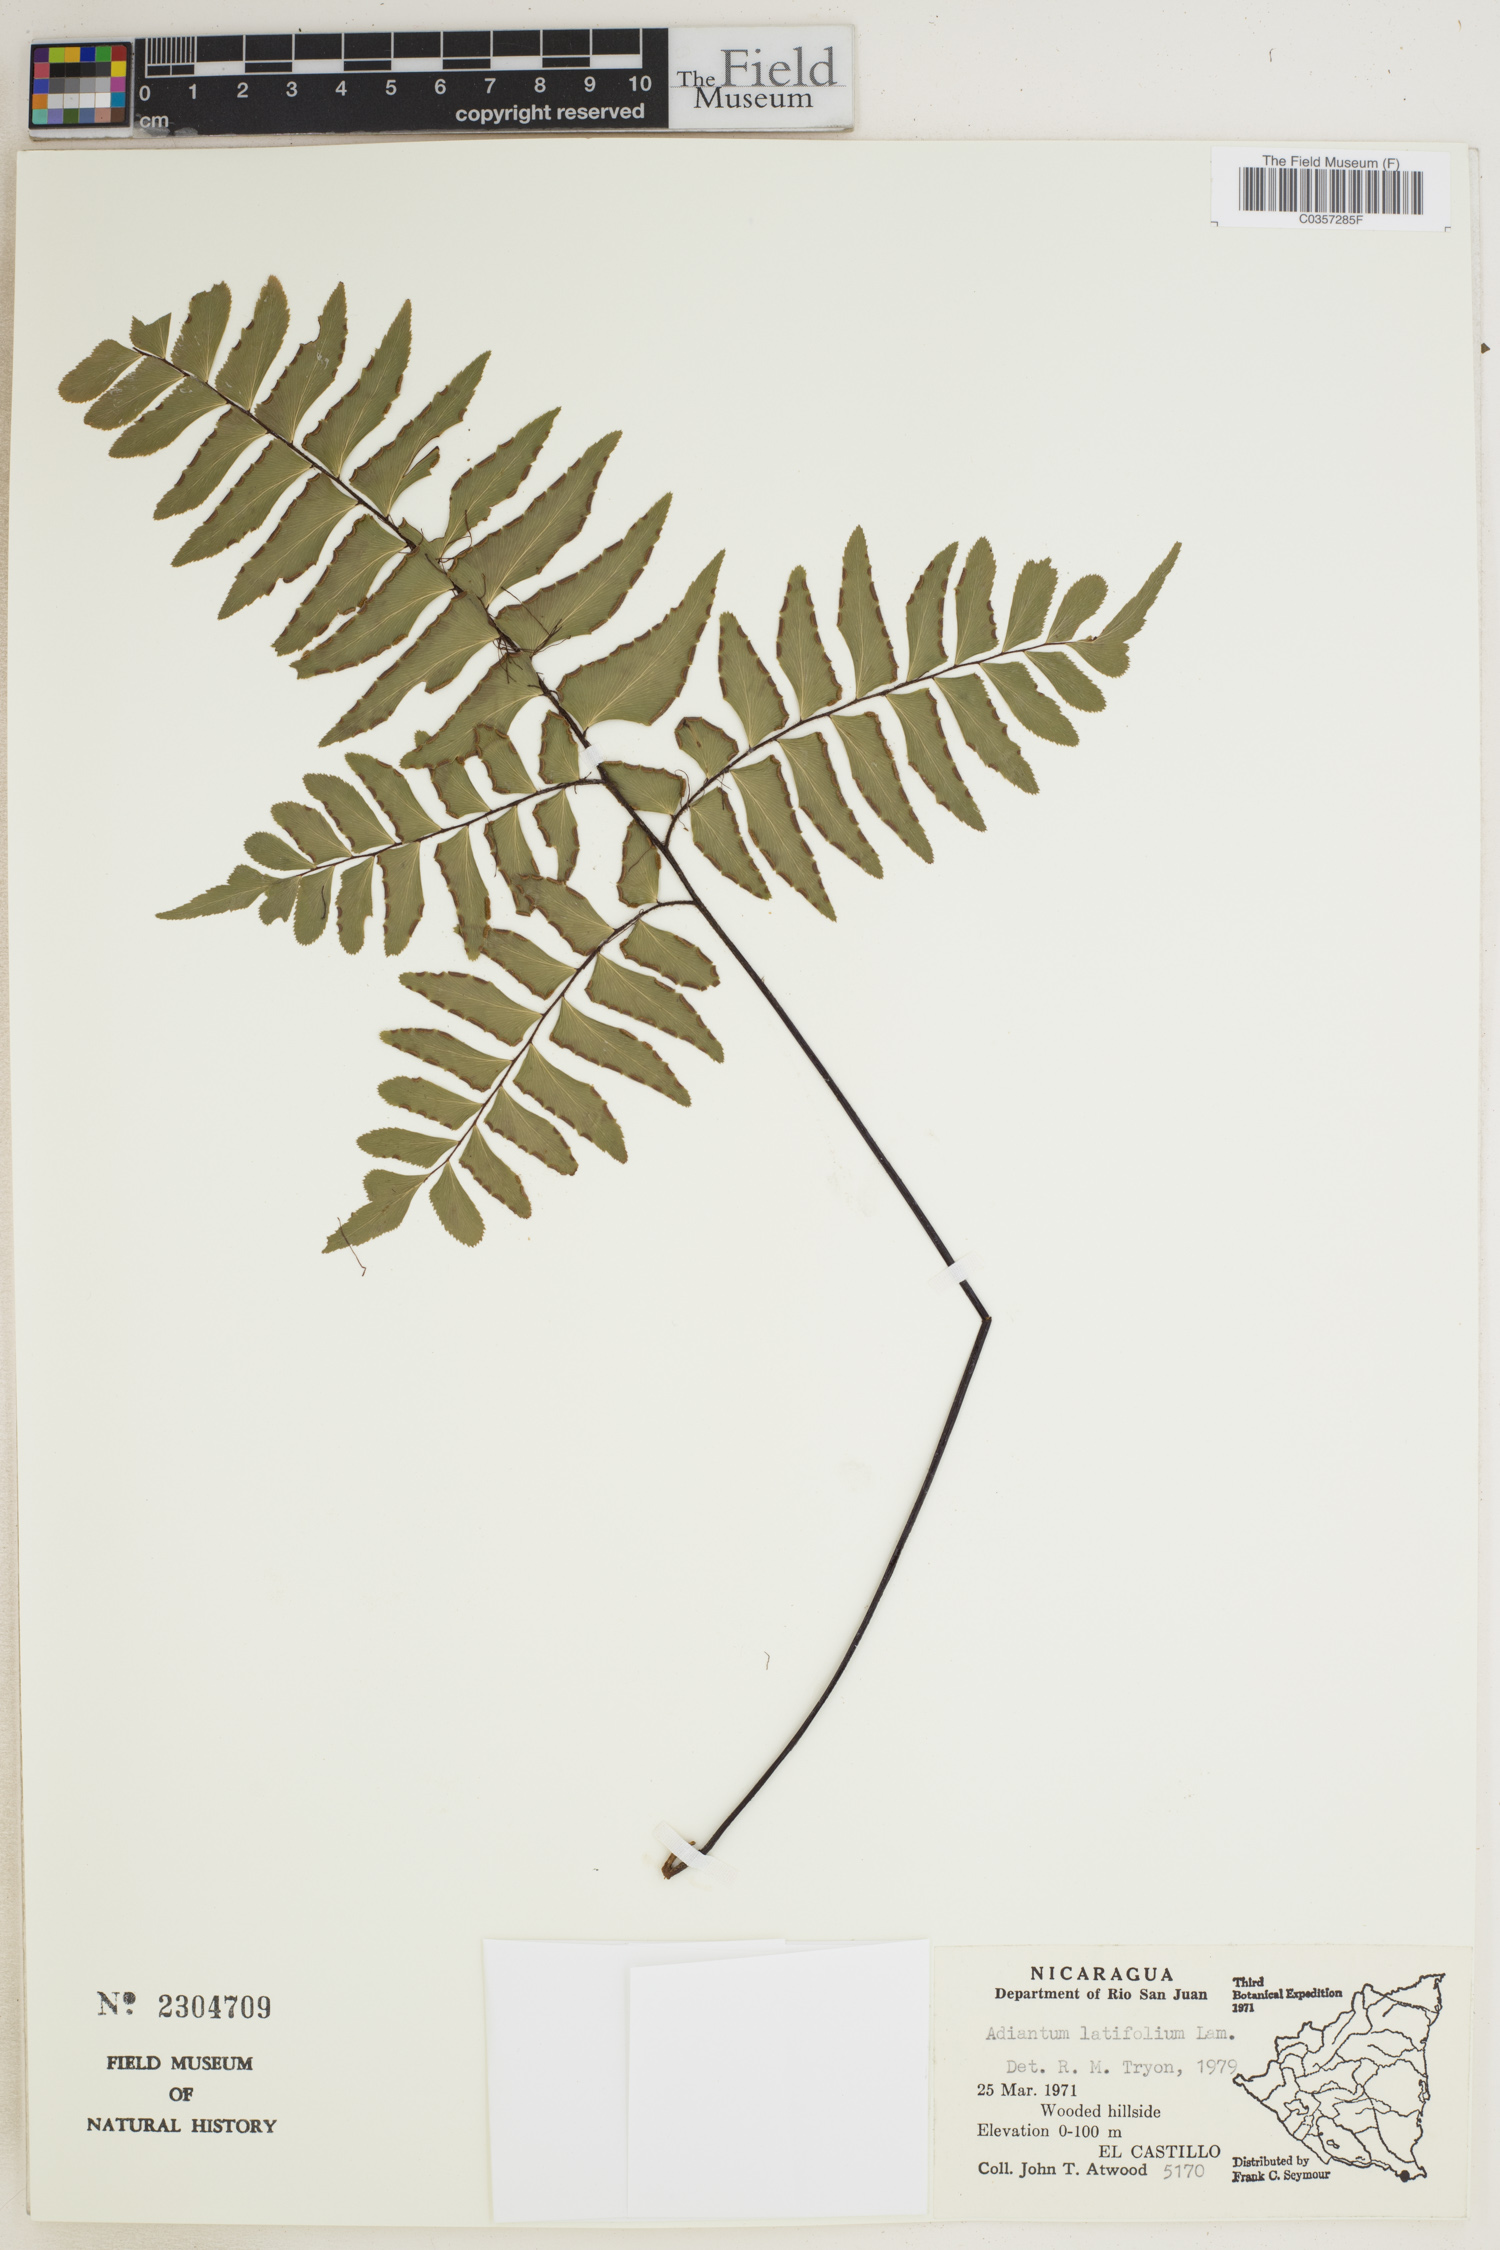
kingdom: Plantae
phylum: Tracheophyta
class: Polypodiopsida
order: Polypodiales
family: Pteridaceae
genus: Adiantum
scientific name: Adiantum latifolium
